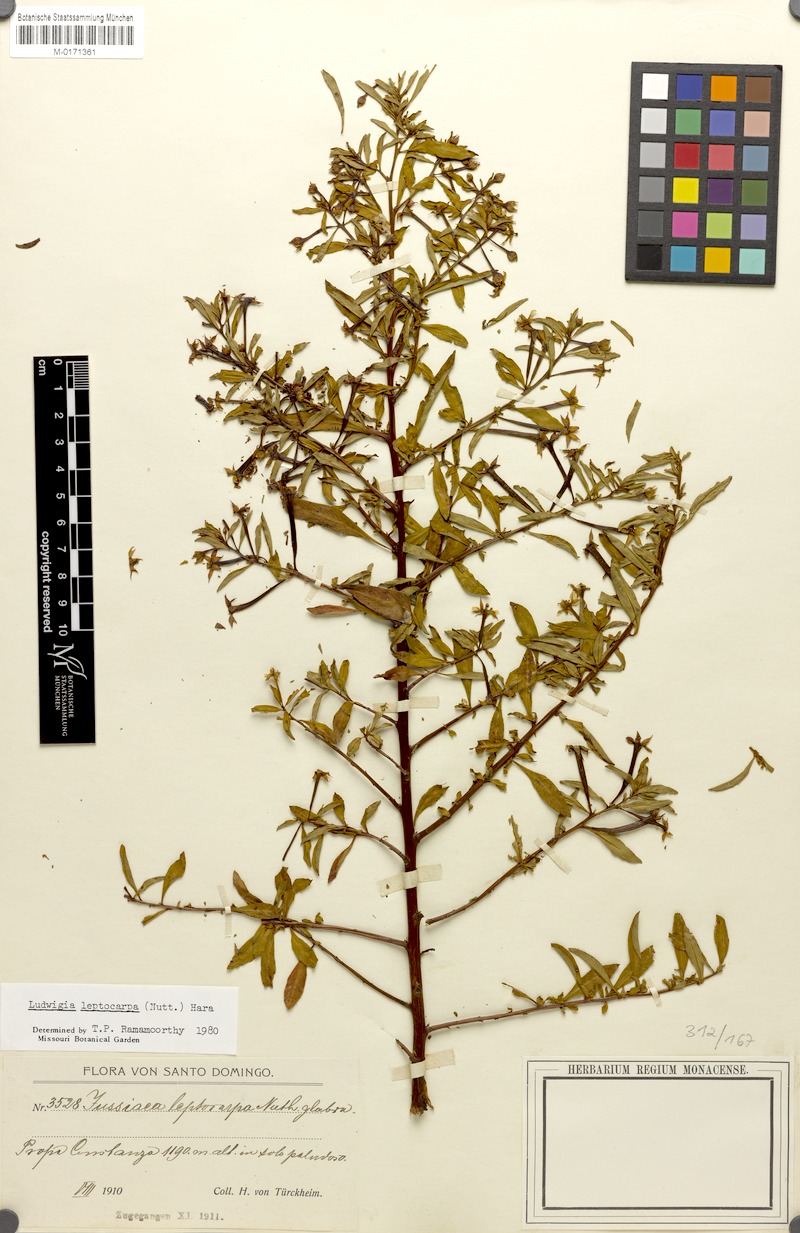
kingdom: Plantae
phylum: Tracheophyta
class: Magnoliopsida
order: Myrtales
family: Onagraceae
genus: Ludwigia
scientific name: Ludwigia leptocarpa
